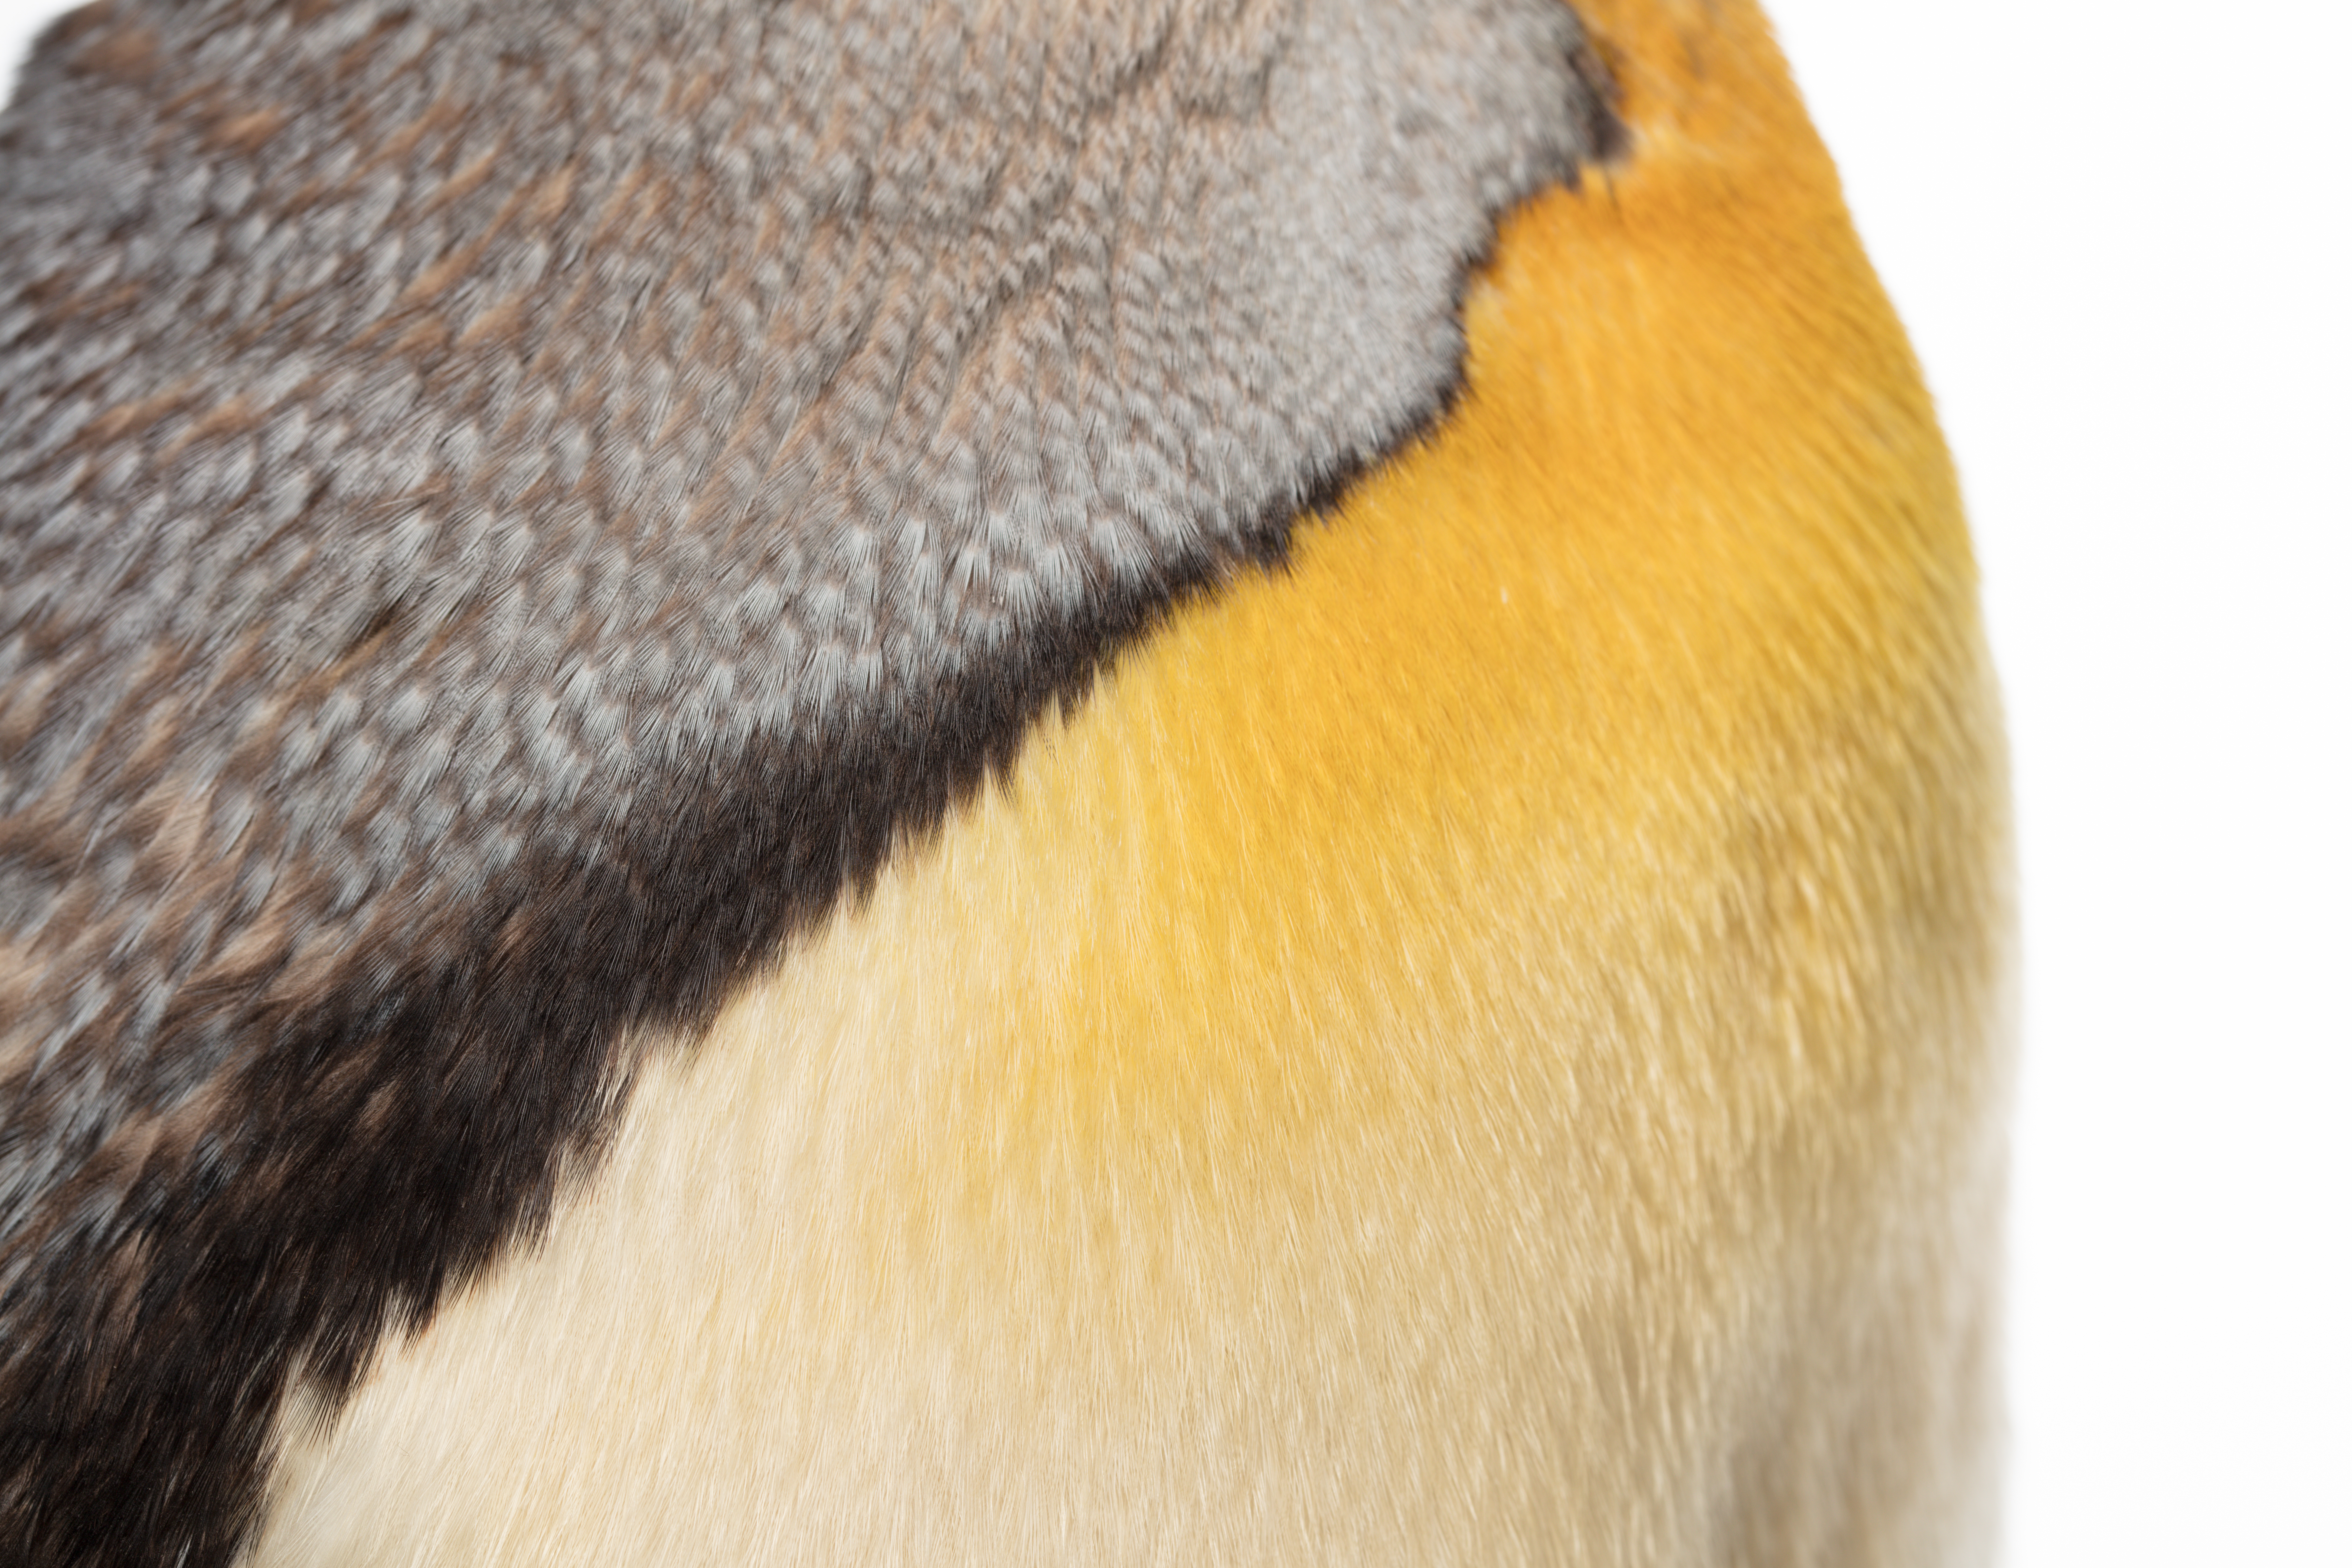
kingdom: Animalia
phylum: Chordata
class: Aves
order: Sphenisciformes
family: Spheniscidae
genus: Aptenodytes
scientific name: Aptenodytes patagonicus
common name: King penguin
